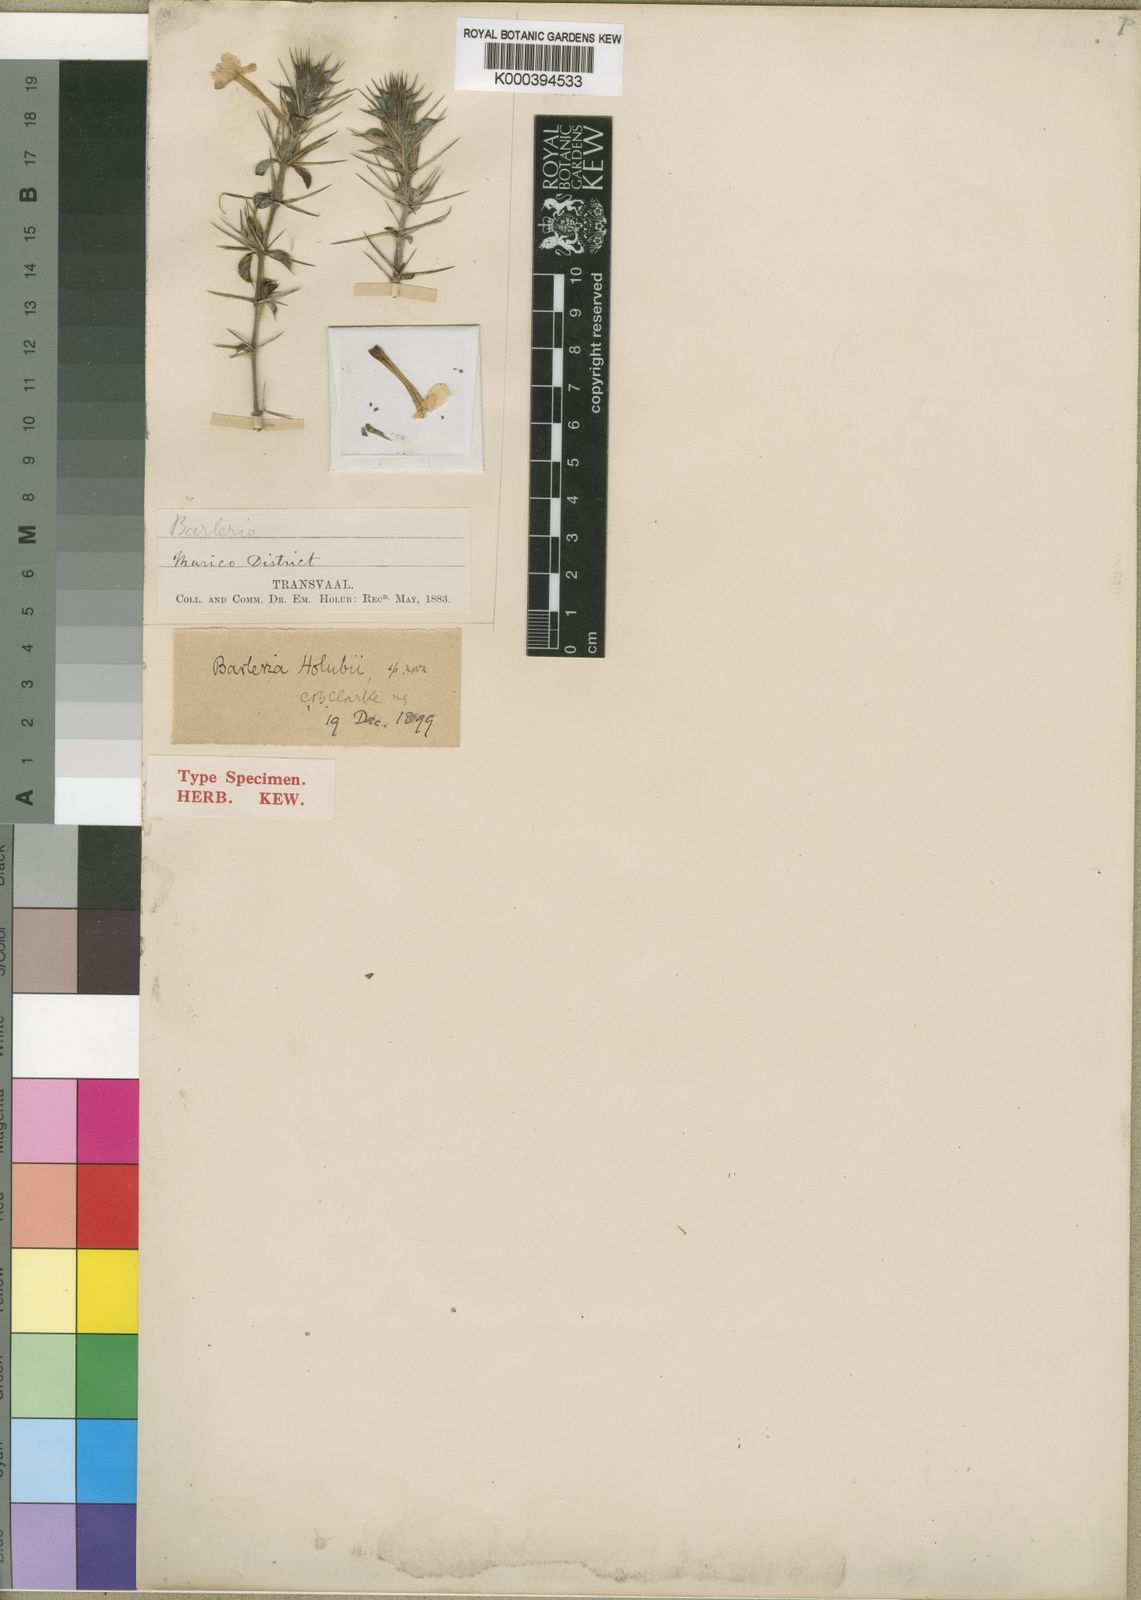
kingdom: Plantae
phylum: Tracheophyta
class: Magnoliopsida
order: Lamiales
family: Acanthaceae
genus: Barleria
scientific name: Barleria holubii
